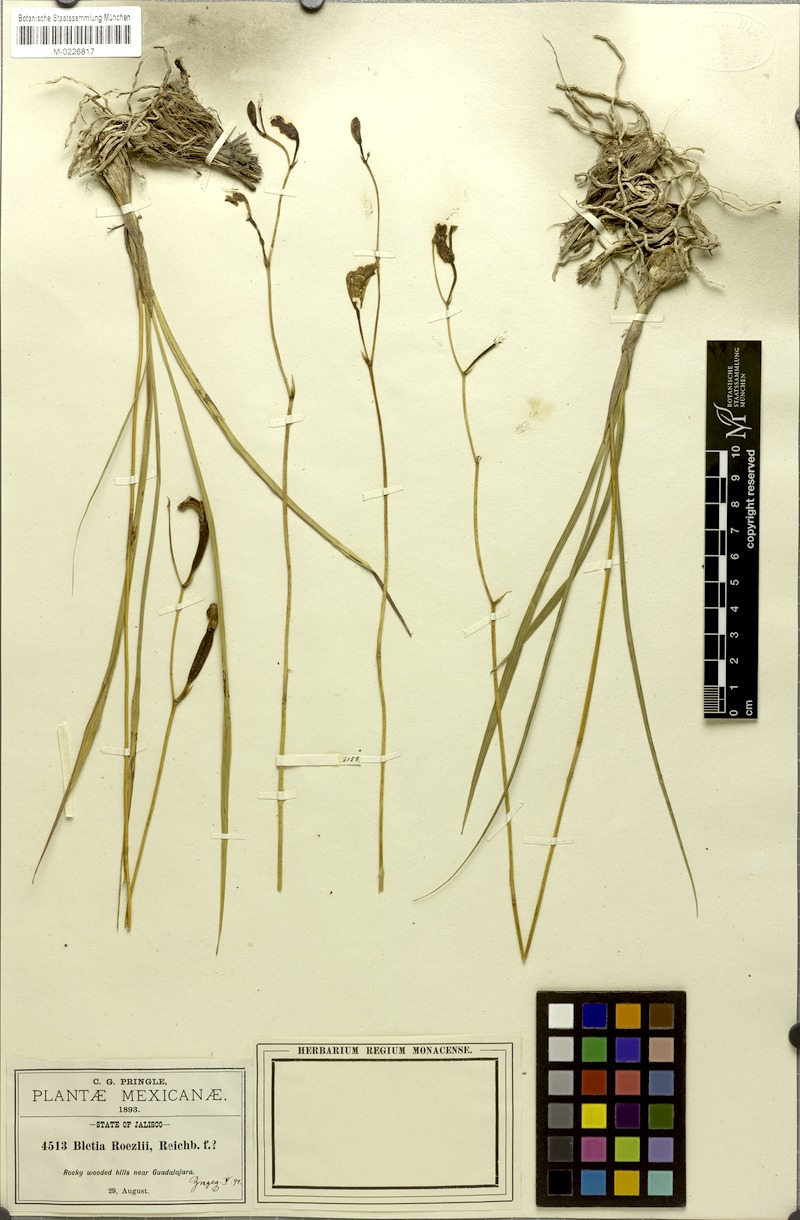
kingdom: Plantae
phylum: Tracheophyta
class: Liliopsida
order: Asparagales
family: Orchidaceae
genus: Bletia
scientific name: Bletia roezlii
